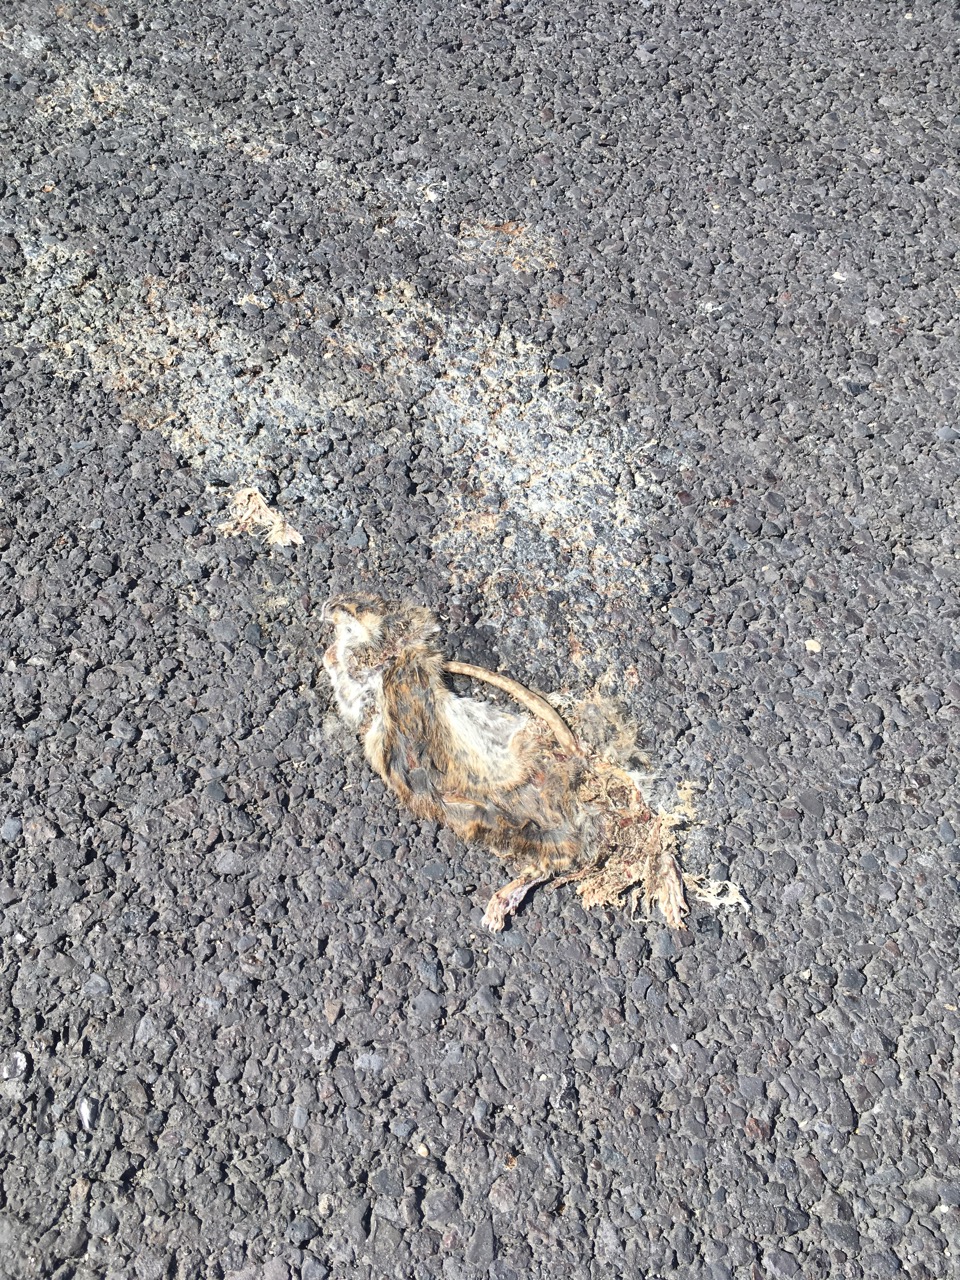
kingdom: Animalia
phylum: Chordata
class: Mammalia
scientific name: Mammalia
